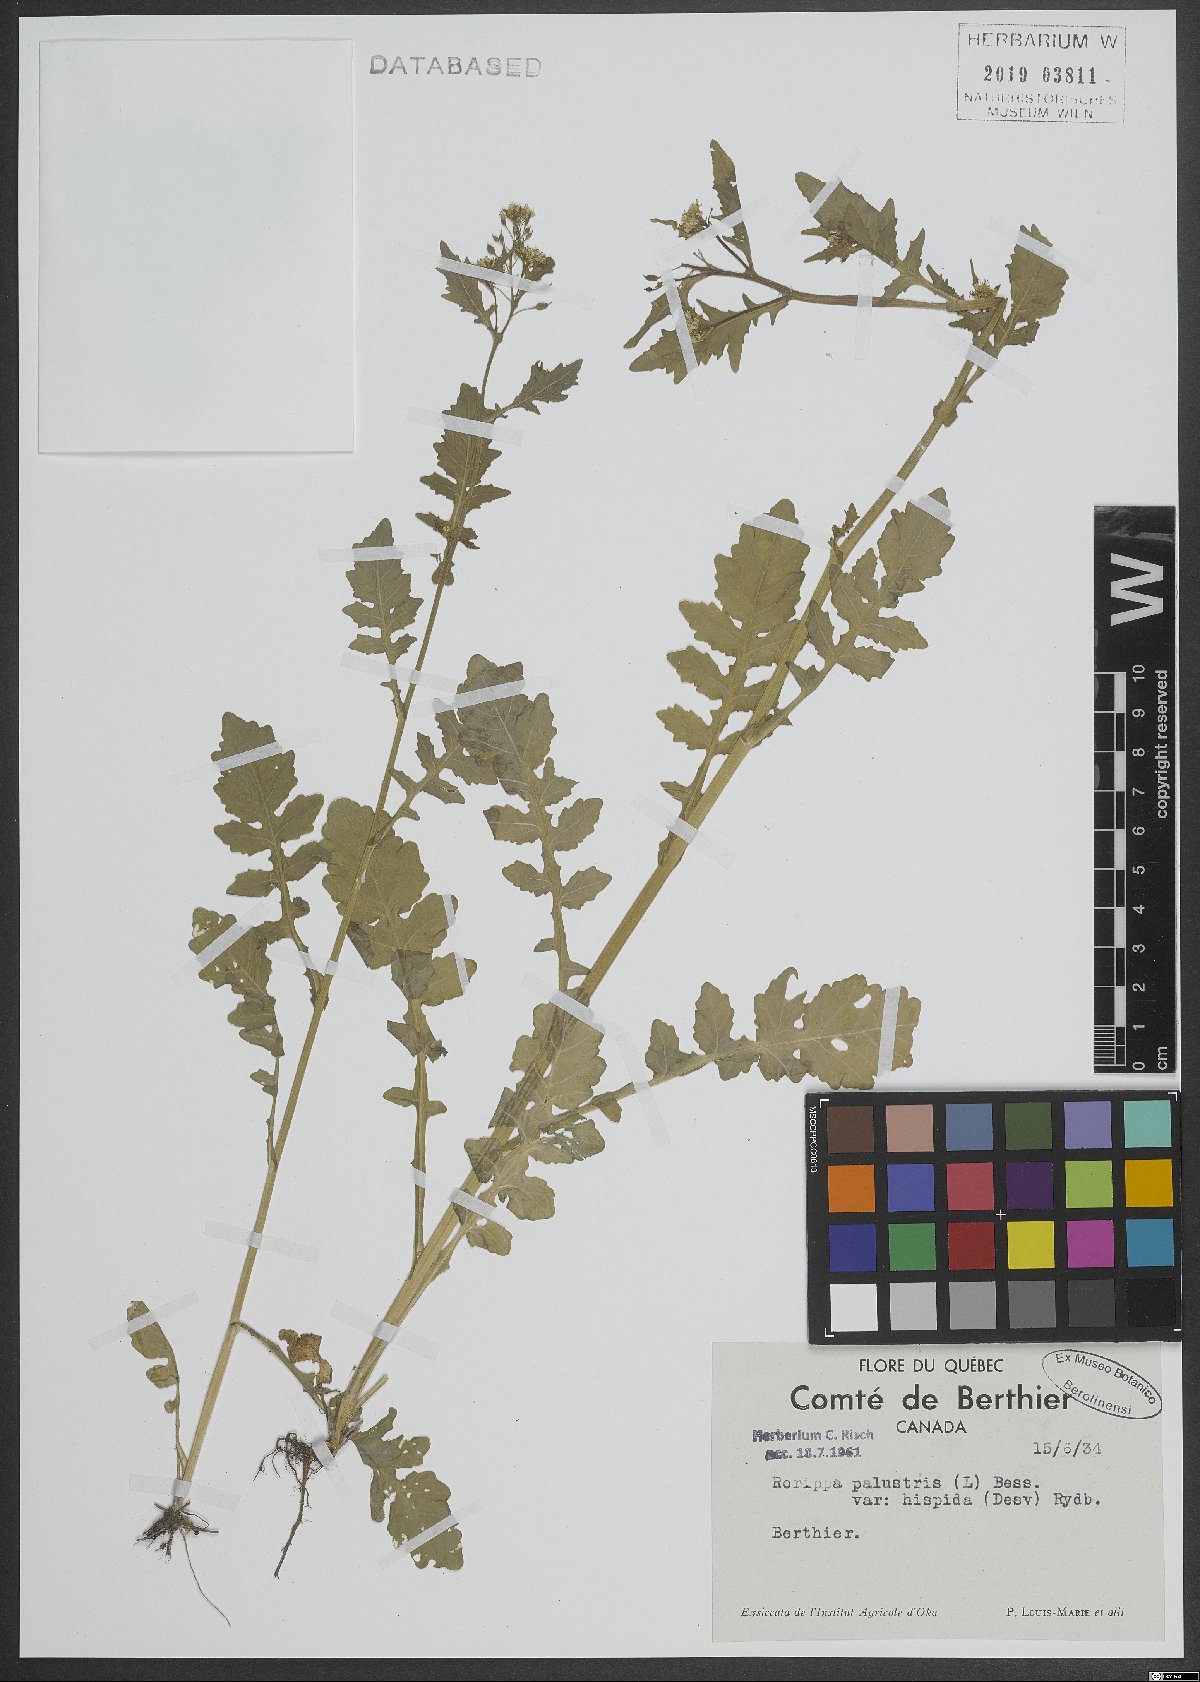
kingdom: Plantae
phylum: Tracheophyta
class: Magnoliopsida
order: Brassicales
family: Brassicaceae
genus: Rorippa
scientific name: Rorippa palustris
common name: Marsh yellow-cress
